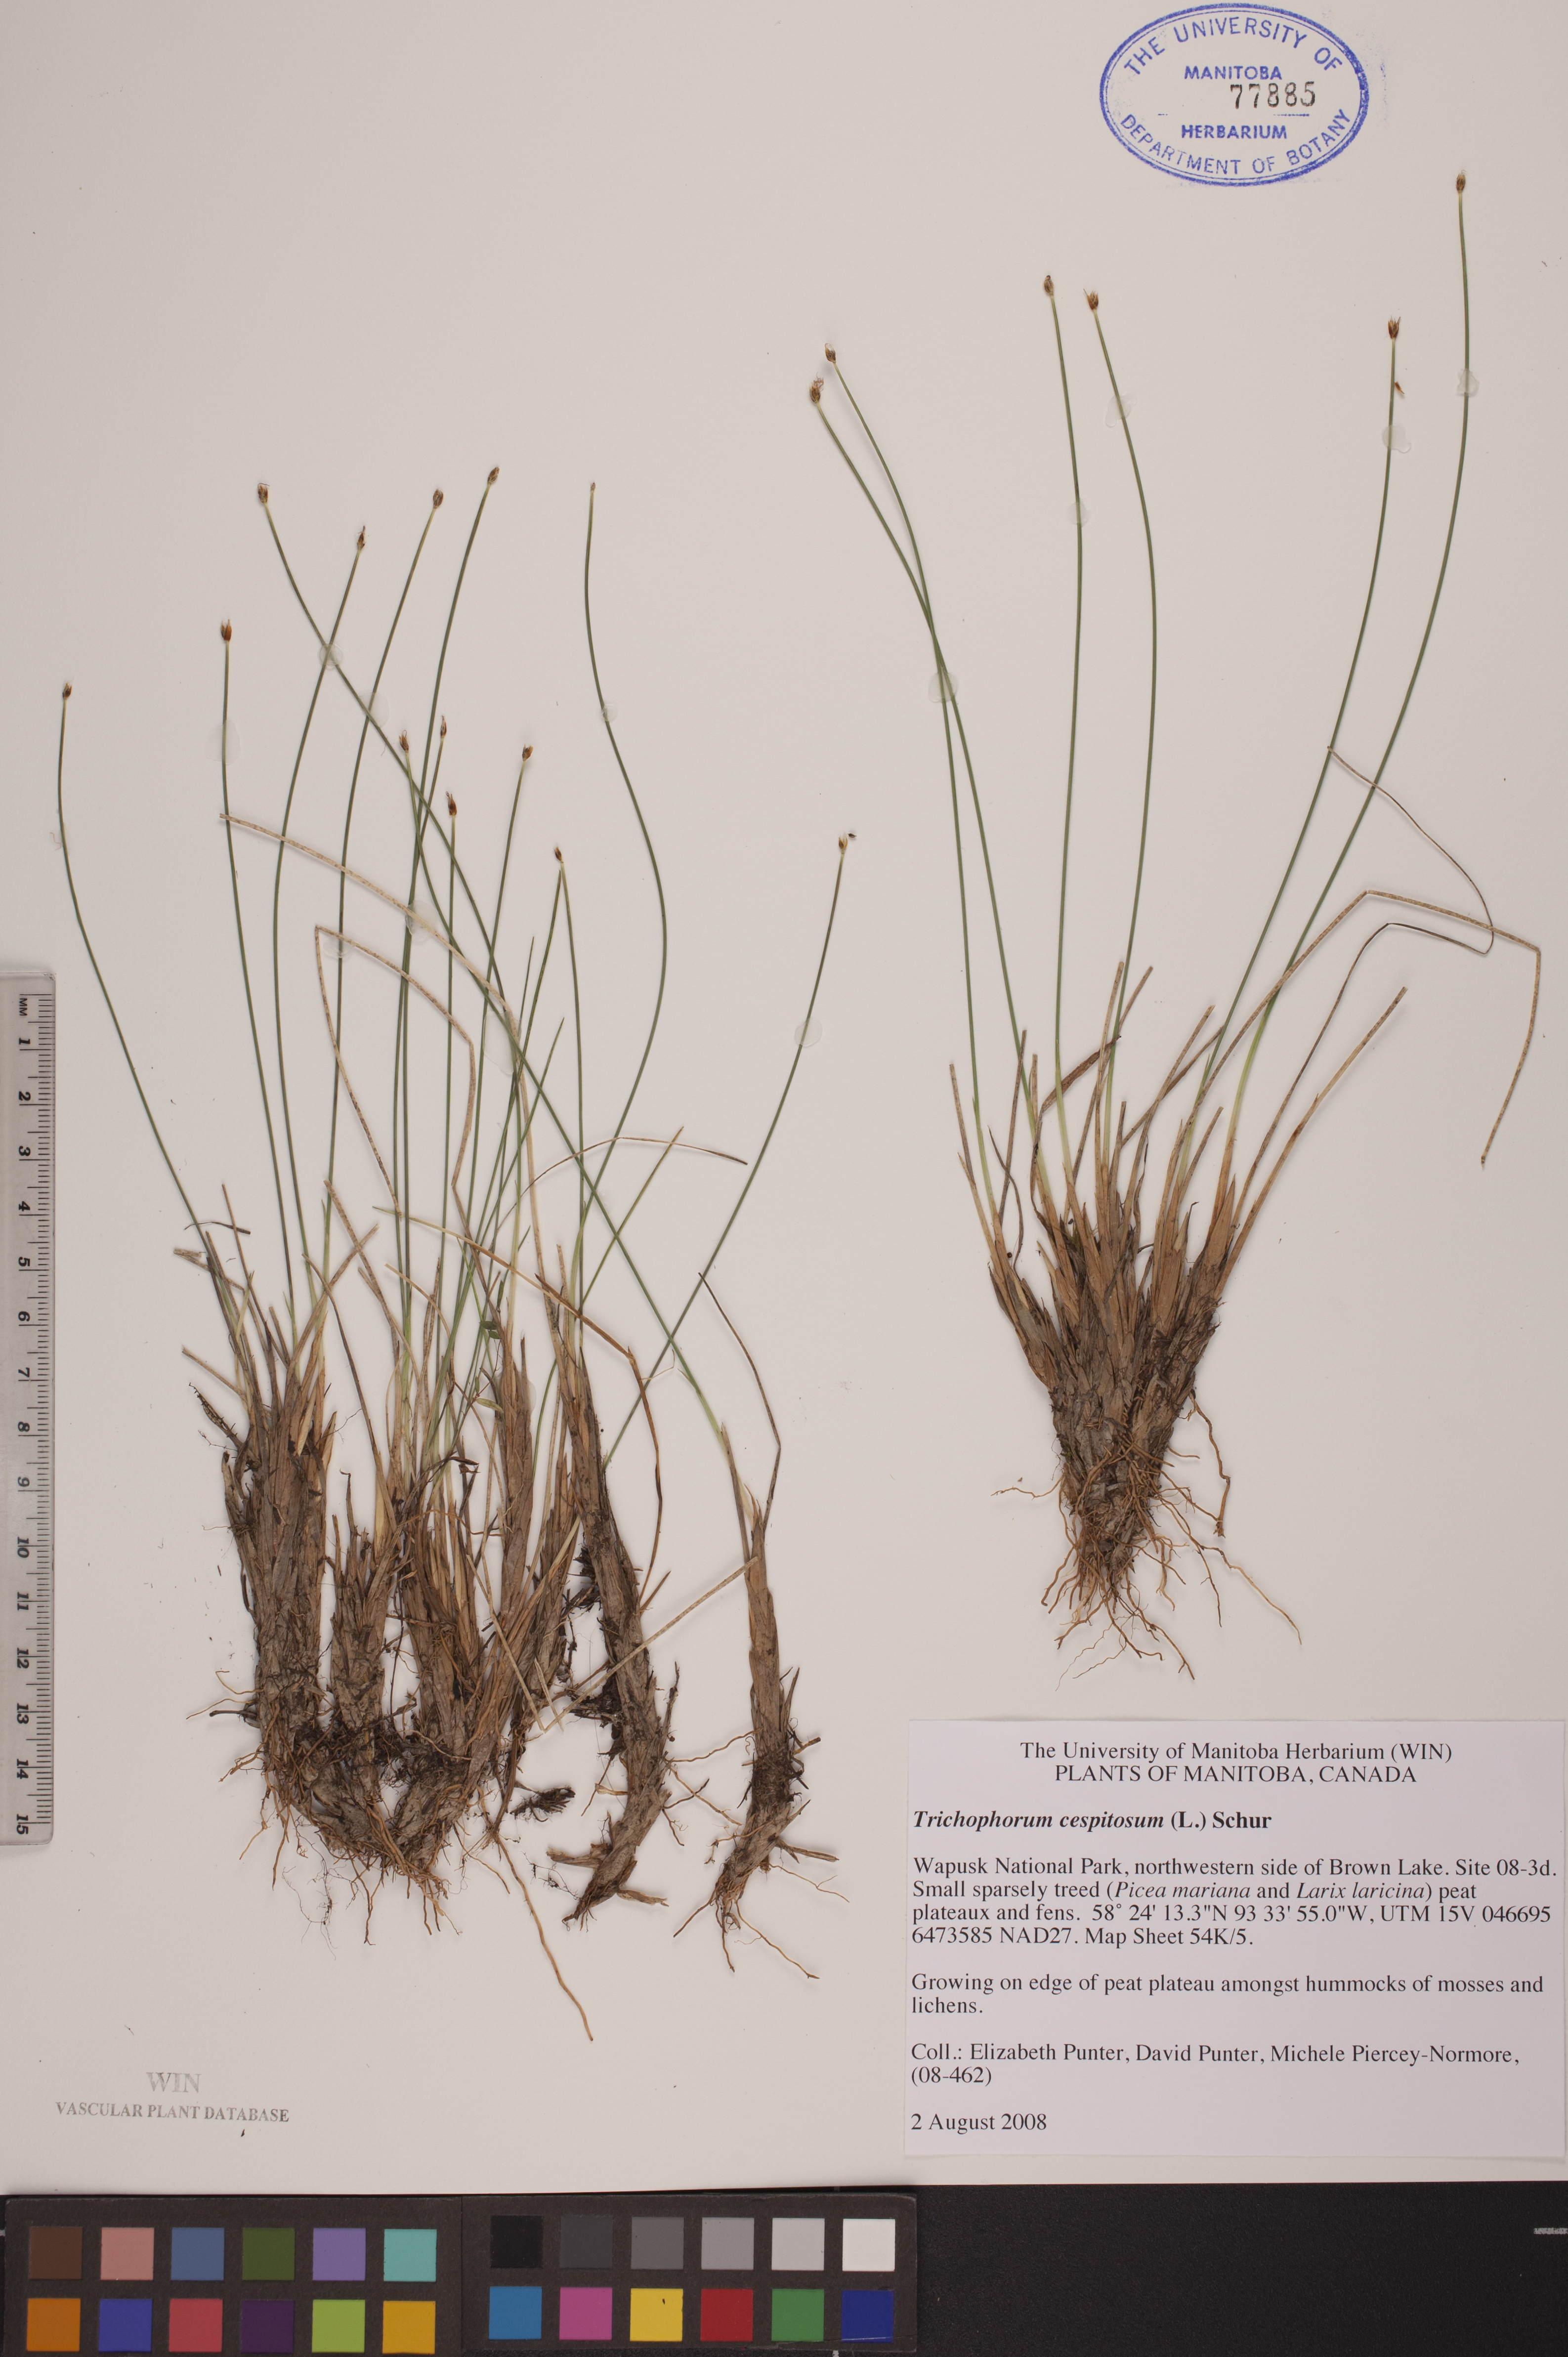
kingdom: Plantae
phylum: Tracheophyta
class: Liliopsida
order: Poales
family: Cyperaceae
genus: Trichophorum
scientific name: Trichophorum cespitosum
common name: Cespitose bulrush
